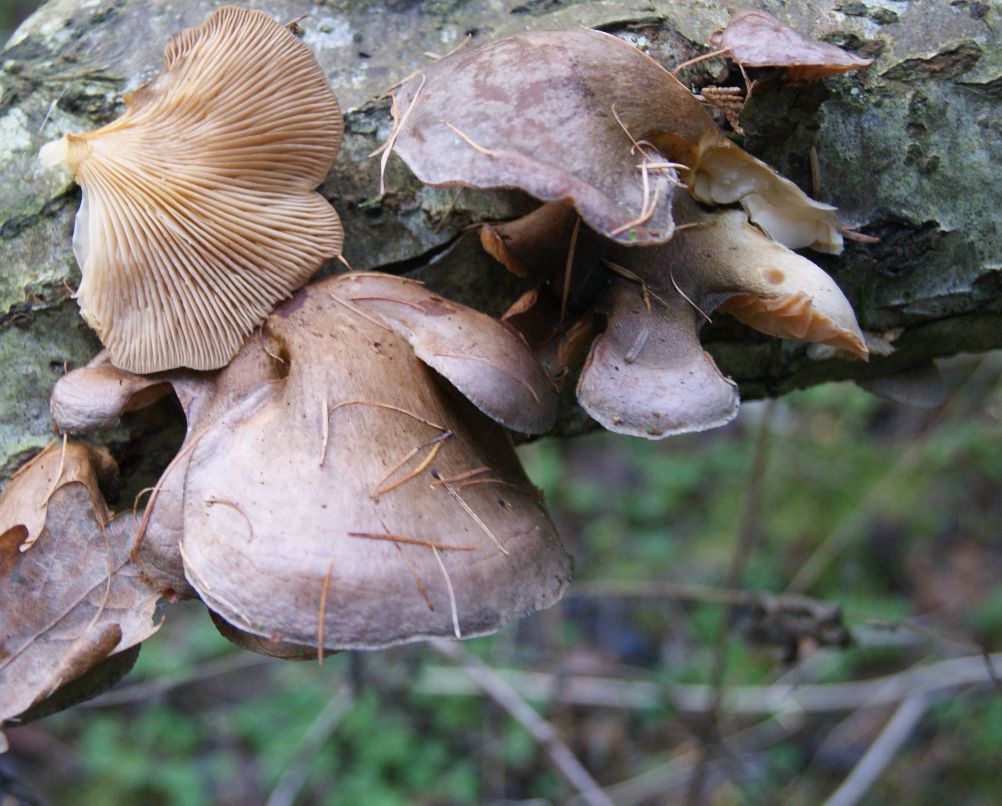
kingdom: Fungi
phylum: Basidiomycota
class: Agaricomycetes
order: Agaricales
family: Sarcomyxaceae
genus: Sarcomyxa
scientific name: Sarcomyxa serotina
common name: gummihat
